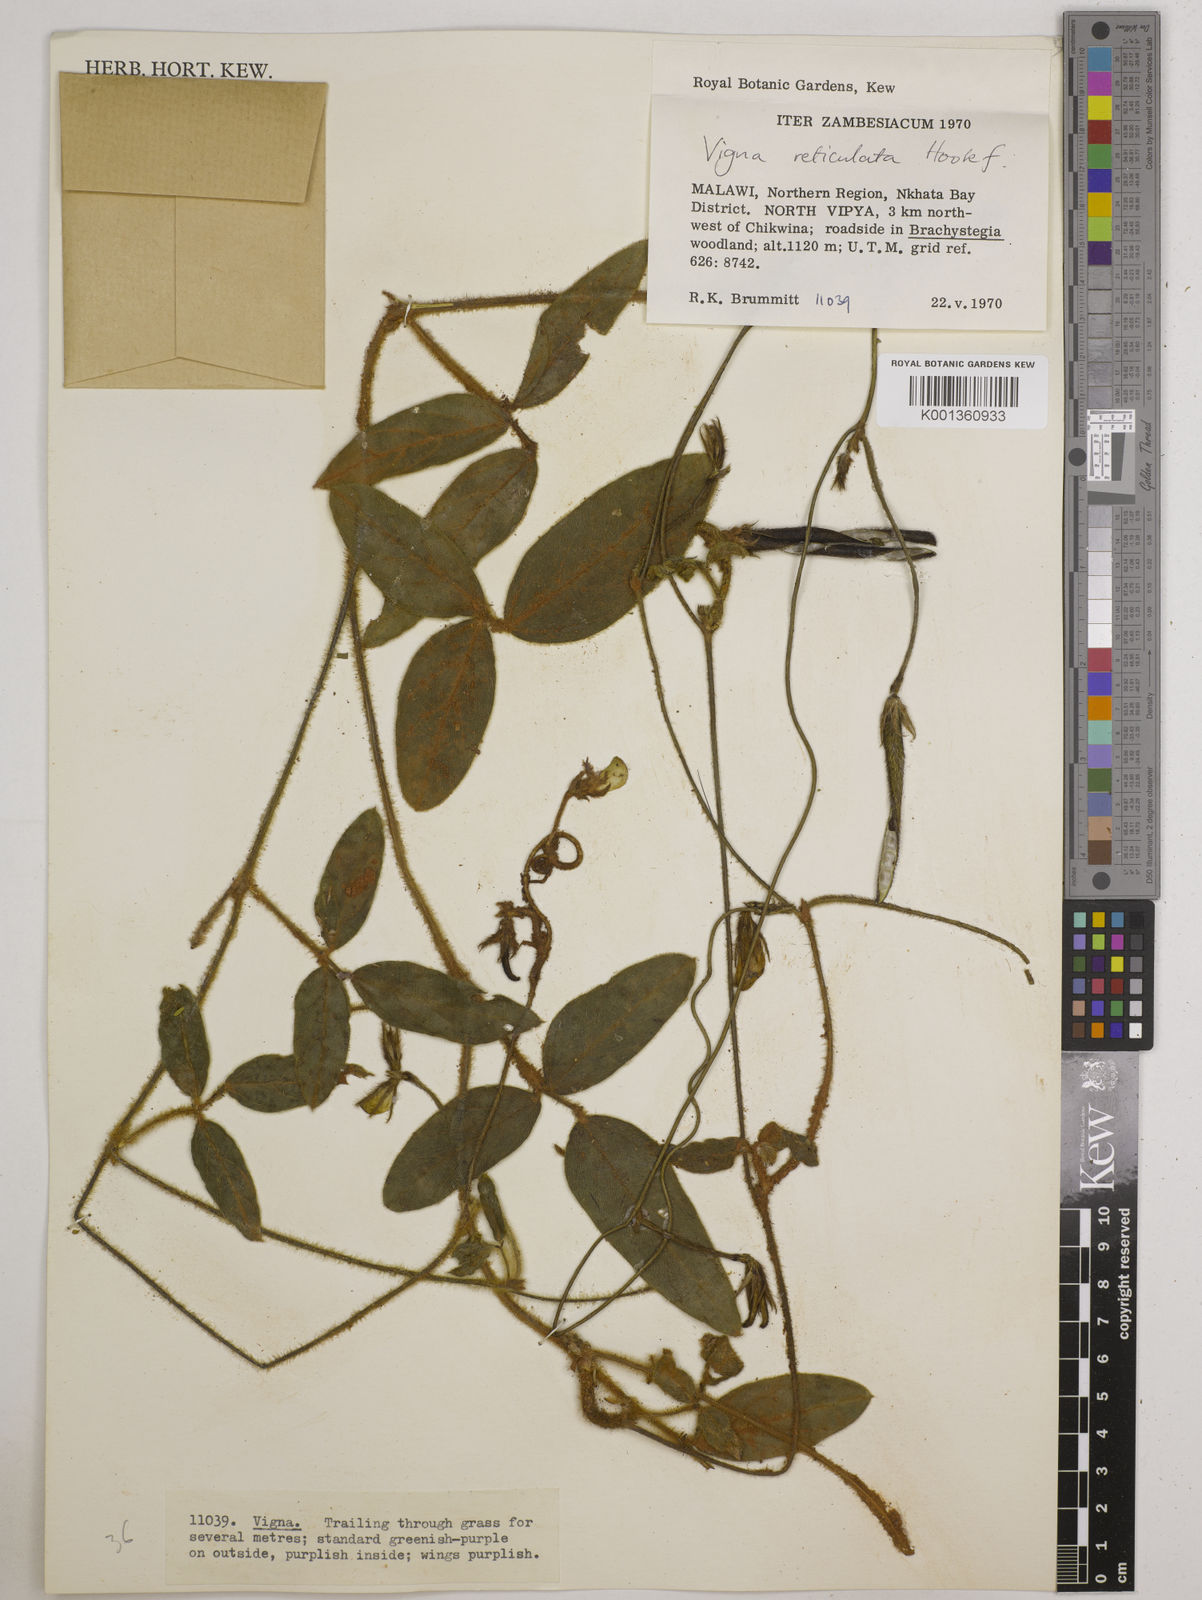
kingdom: Plantae
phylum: Tracheophyta
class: Magnoliopsida
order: Fabales
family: Fabaceae
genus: Vigna
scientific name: Vigna reticulata
